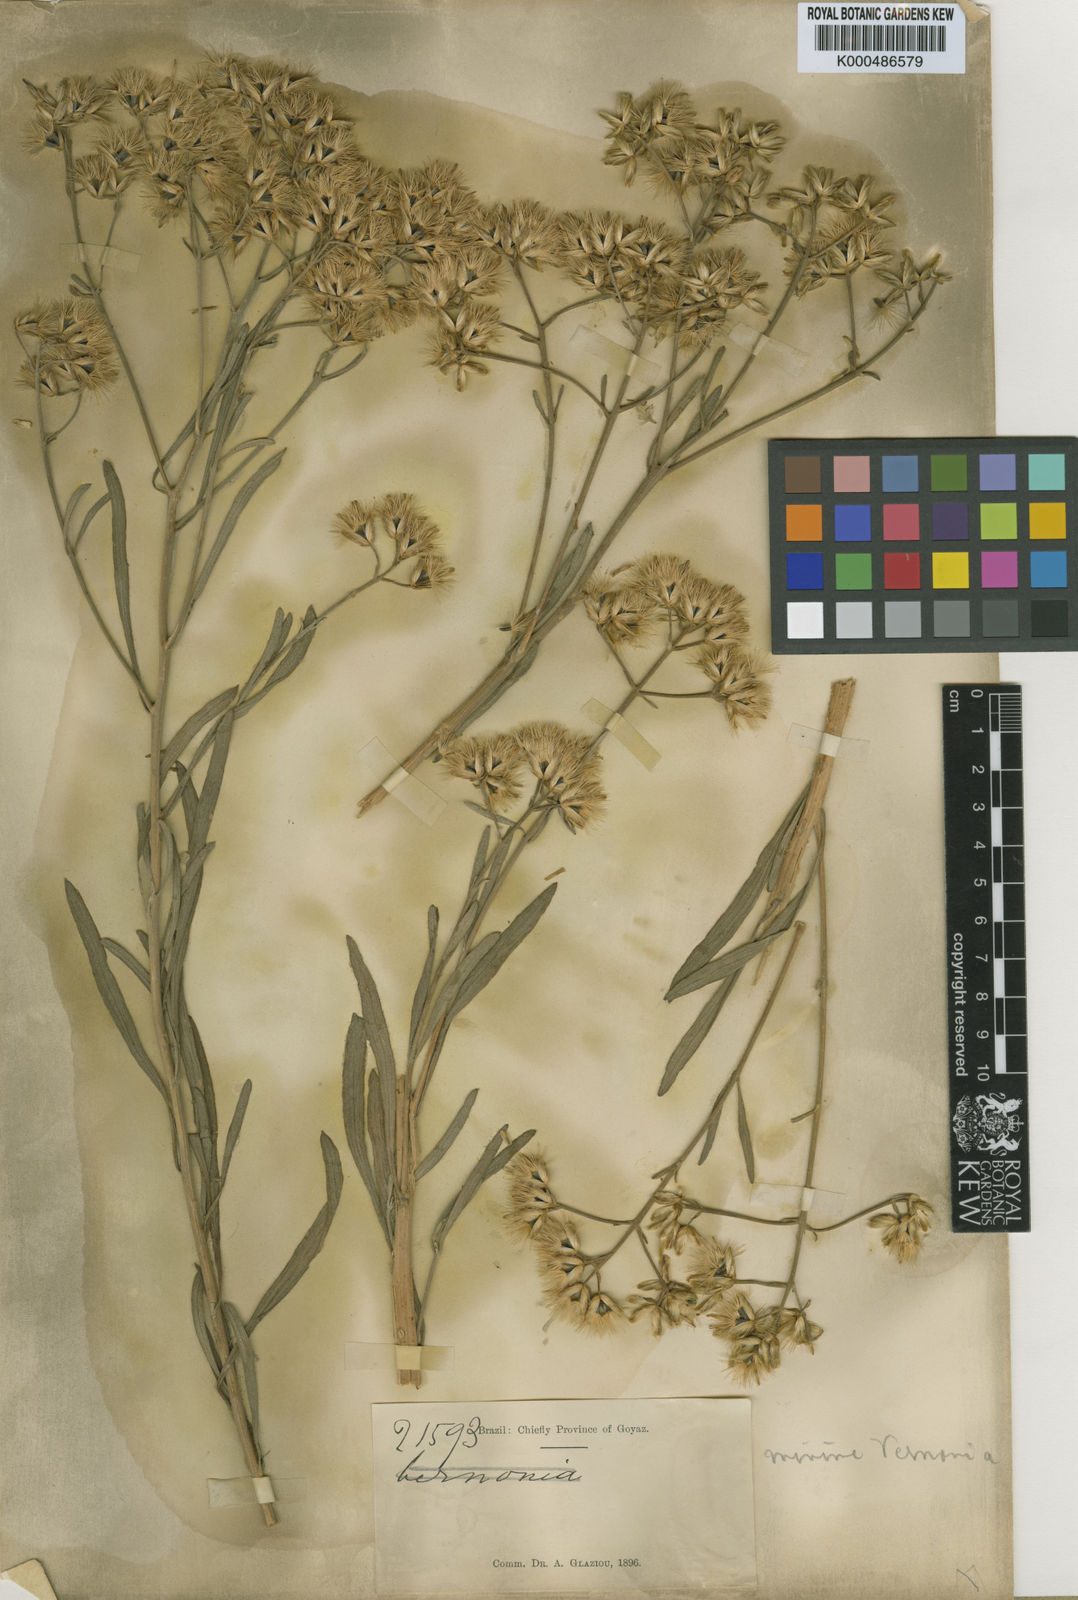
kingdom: Plantae
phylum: Tracheophyta
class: Magnoliopsida
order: Asterales
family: Asteraceae
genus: Goyazianthus
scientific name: Goyazianthus tetrastichus
